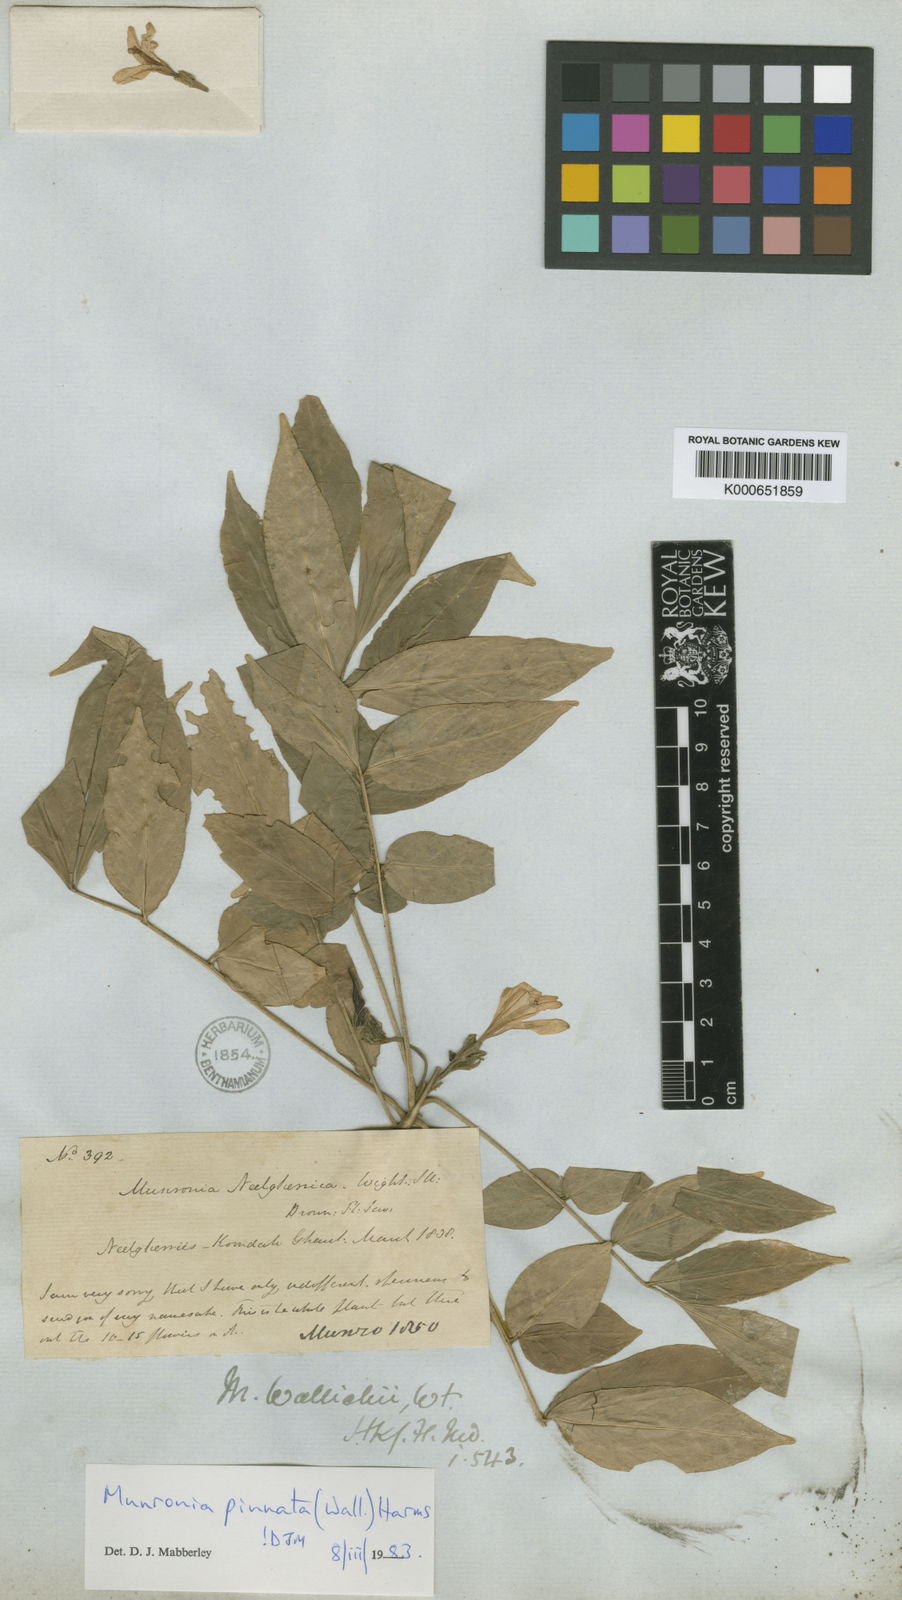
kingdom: Plantae
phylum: Tracheophyta
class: Magnoliopsida
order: Sapindales
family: Meliaceae
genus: Munronia
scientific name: Munronia pinnata
